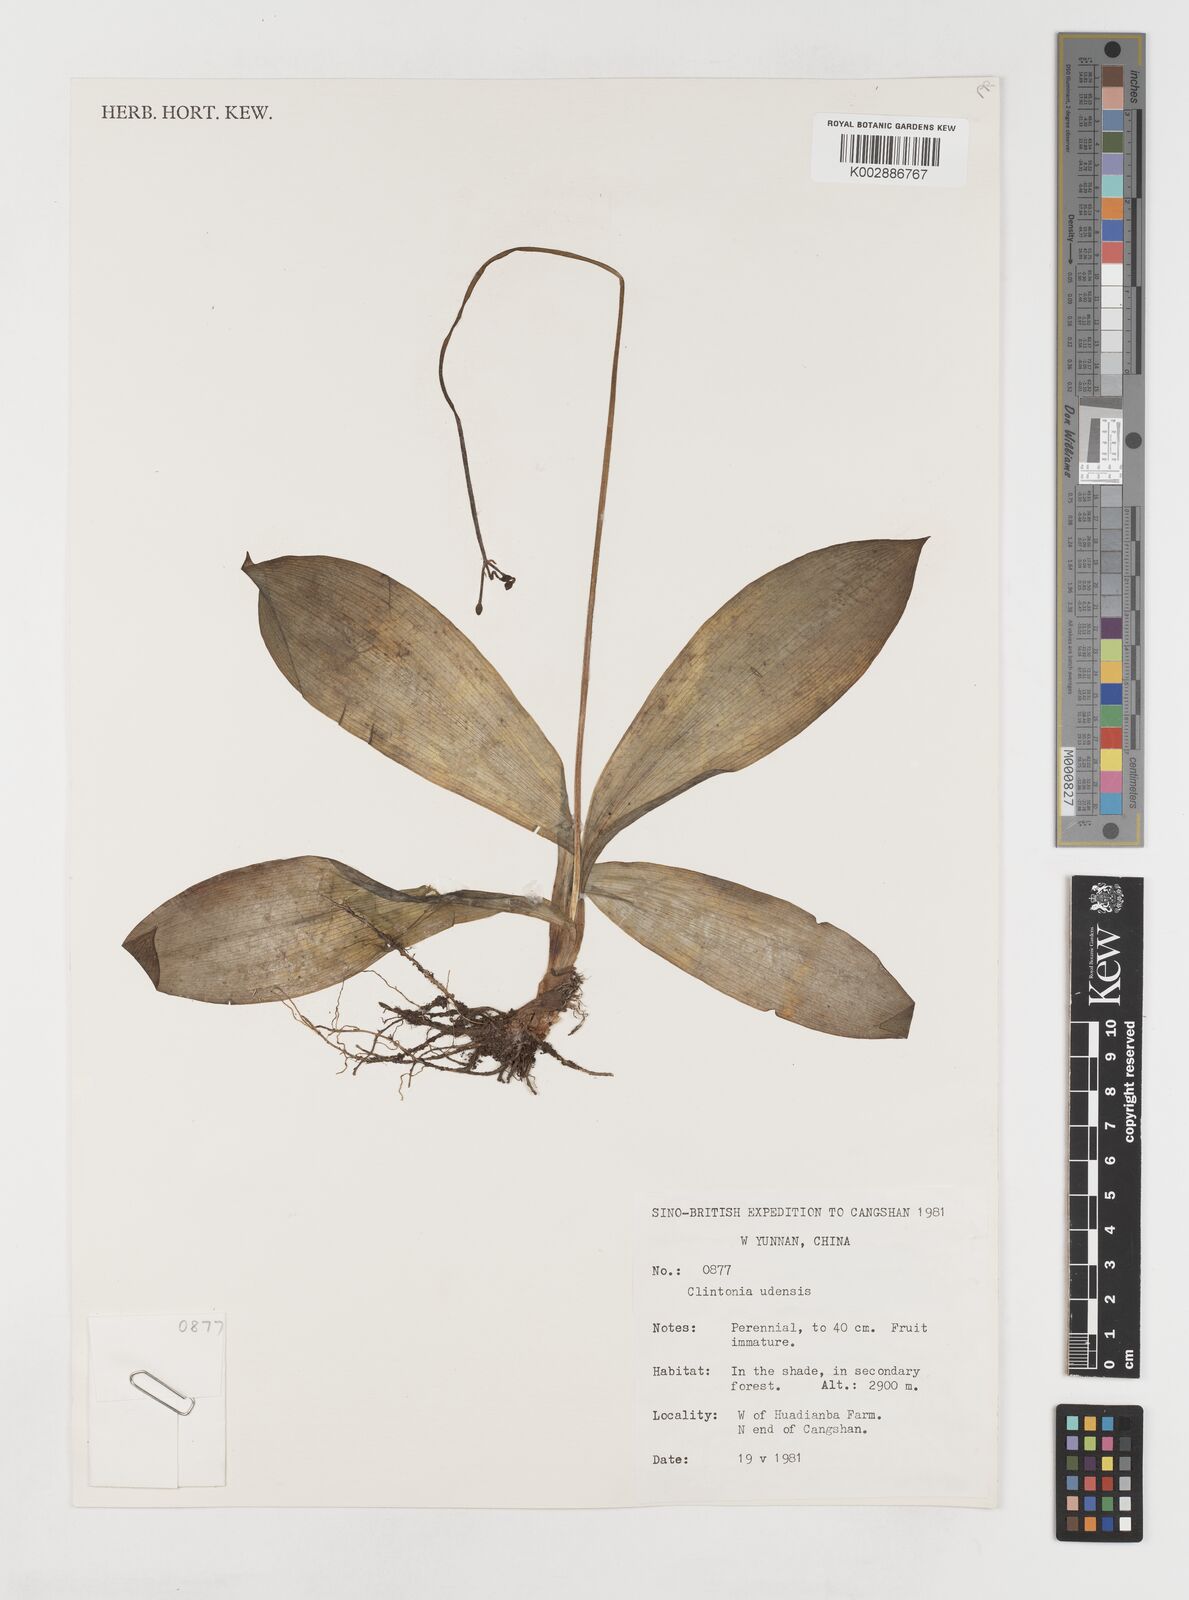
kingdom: Plantae
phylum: Tracheophyta
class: Liliopsida
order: Liliales
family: Liliaceae
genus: Clintonia
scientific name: Clintonia udensis
